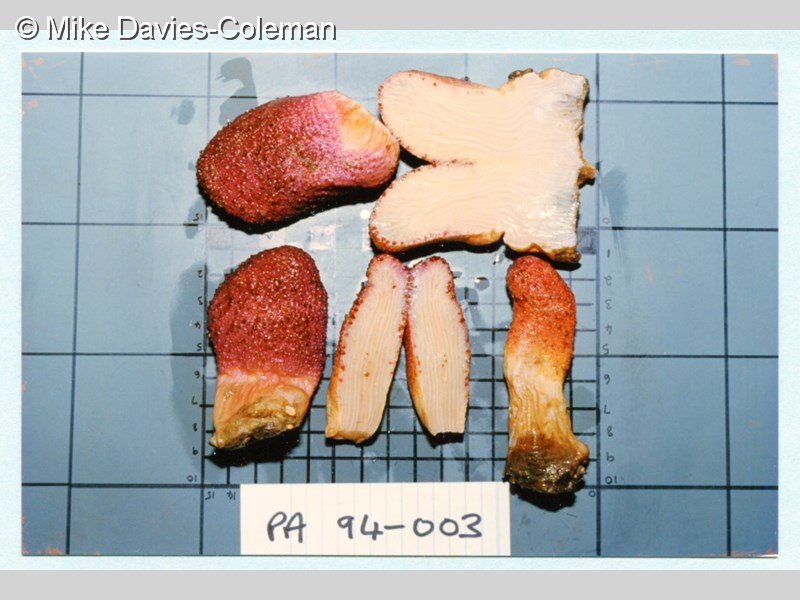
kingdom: Animalia
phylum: Cnidaria
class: Anthozoa
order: Malacalcyonacea
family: Acrophytidae
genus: Pieterfaurea
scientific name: Pieterfaurea unilobata
